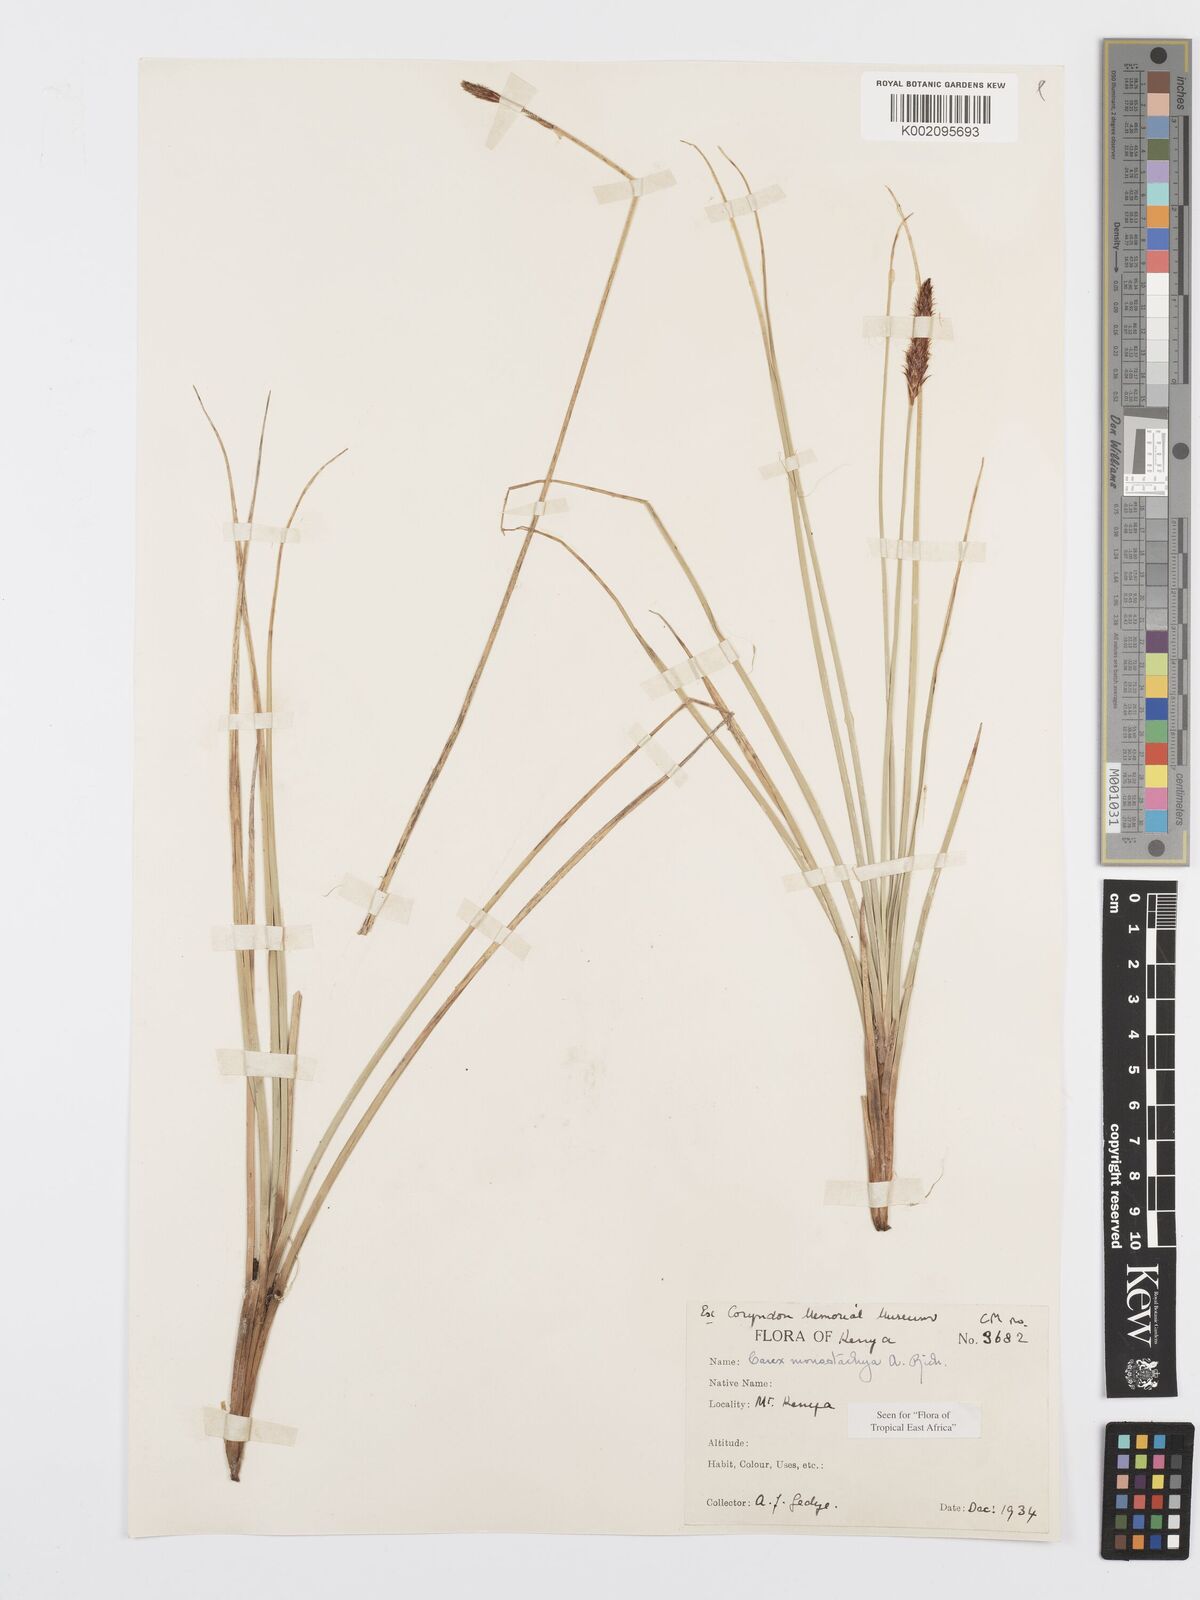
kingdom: Plantae
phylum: Tracheophyta
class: Liliopsida
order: Poales
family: Cyperaceae
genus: Carex
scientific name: Carex monostachya
